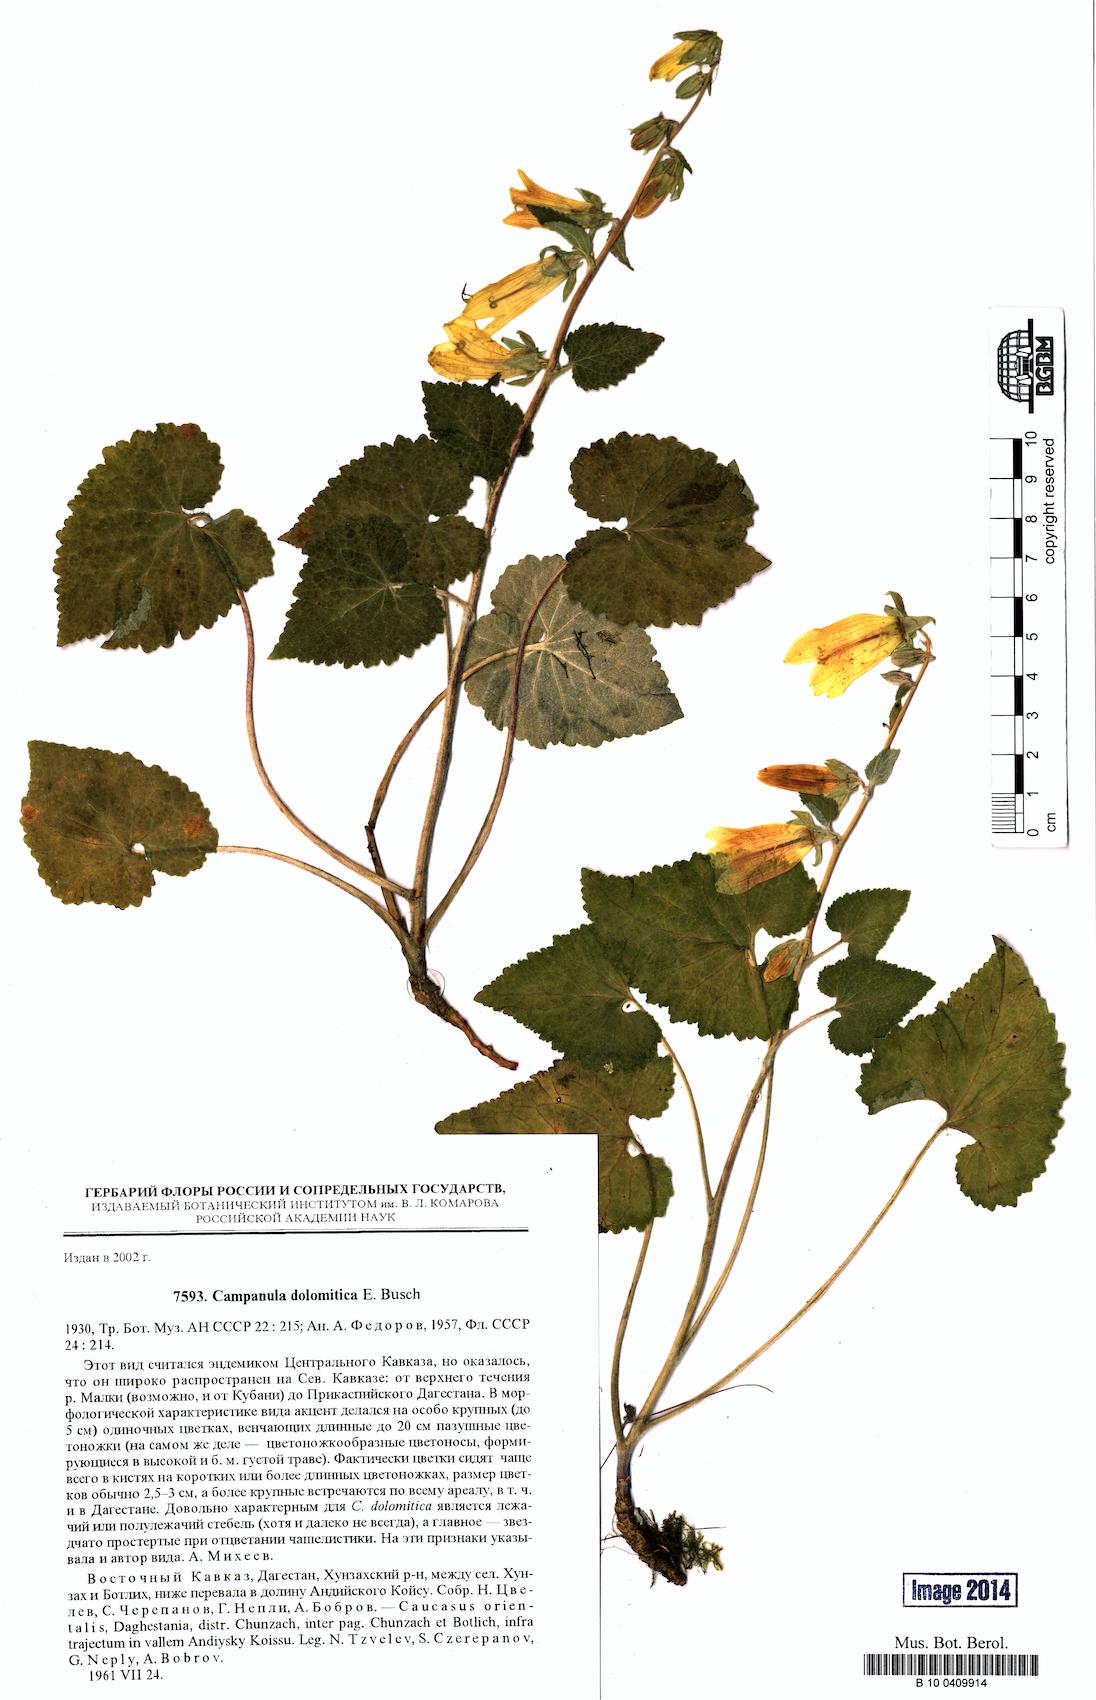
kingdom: Plantae
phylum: Tracheophyta
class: Magnoliopsida
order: Asterales
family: Campanulaceae
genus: Campanula
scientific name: Campanula dolomitica
